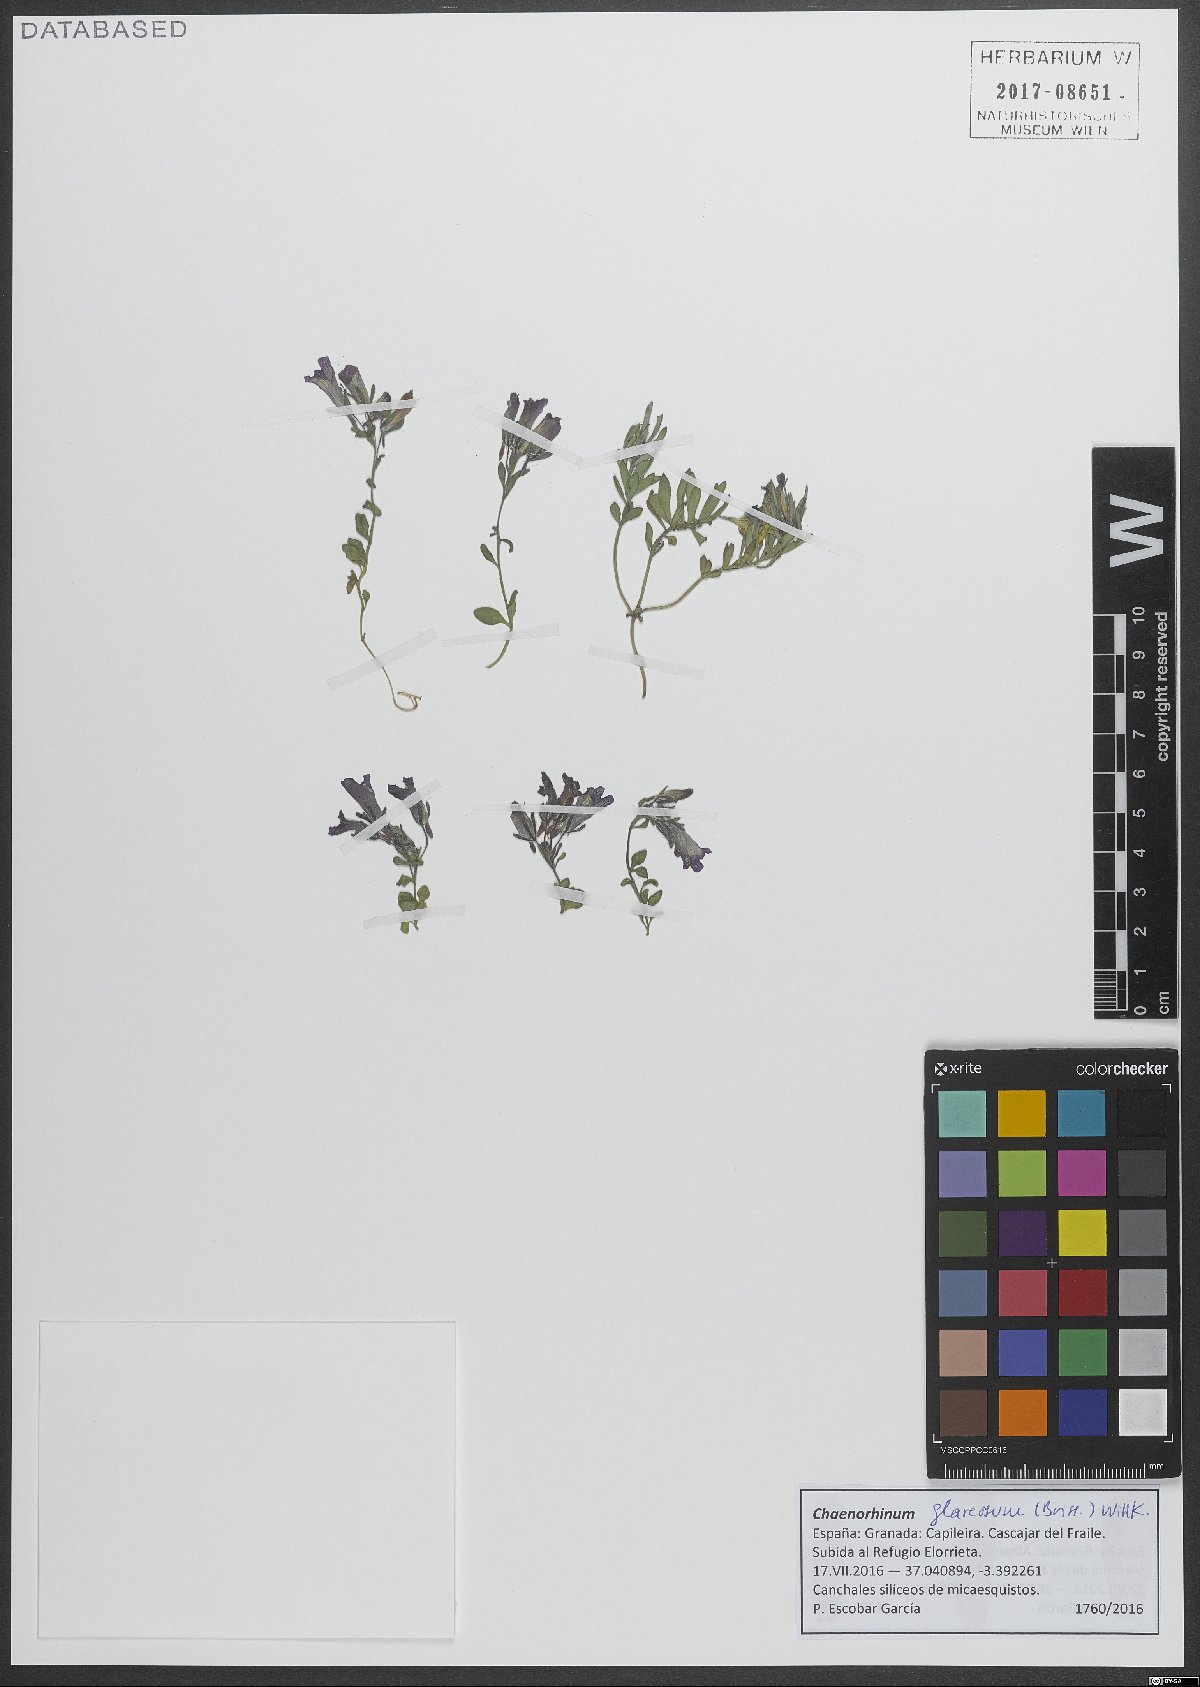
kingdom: Plantae
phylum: Tracheophyta
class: Magnoliopsida
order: Lamiales
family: Plantaginaceae
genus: Chaenorhinum
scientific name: Chaenorhinum glareosum
